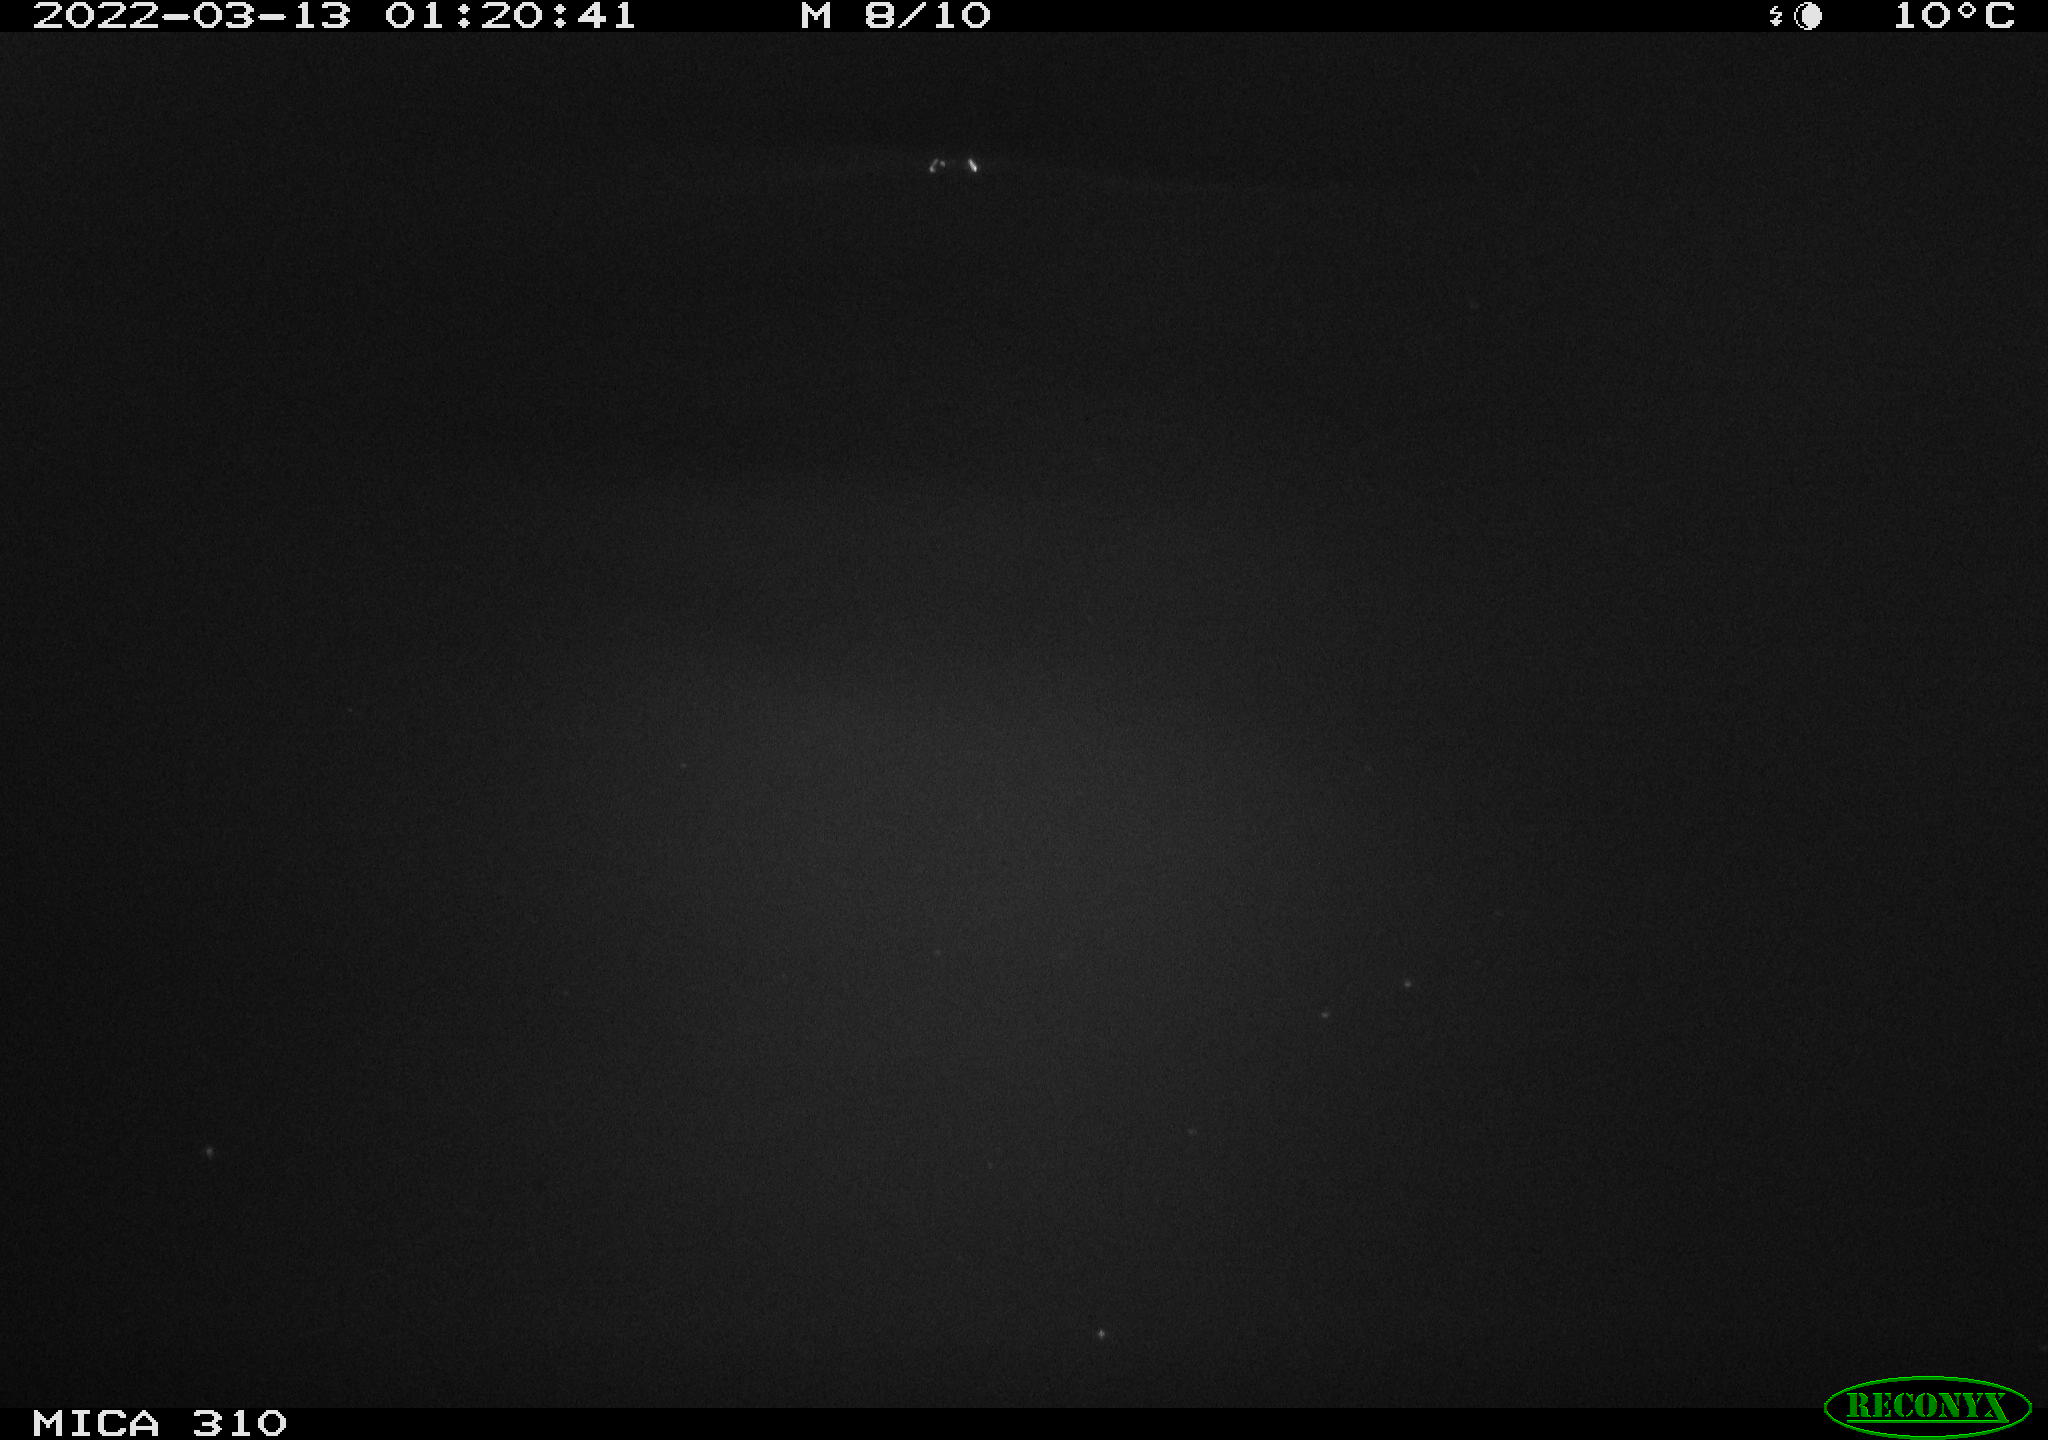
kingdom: Animalia
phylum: Chordata
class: Aves
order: Anseriformes
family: Anatidae
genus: Anas
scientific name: Anas platyrhynchos
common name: Mallard
